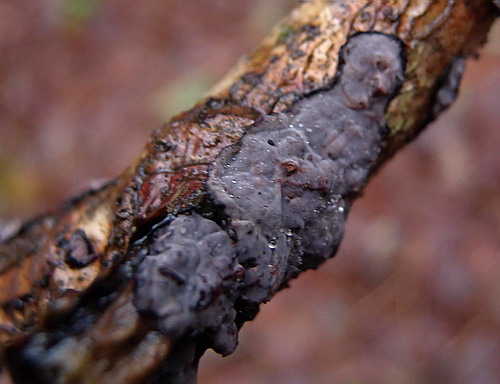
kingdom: Fungi
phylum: Basidiomycota
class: Agaricomycetes
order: Russulales
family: Peniophoraceae
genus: Peniophora
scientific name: Peniophora limitata
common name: mørkrandet voksskind
